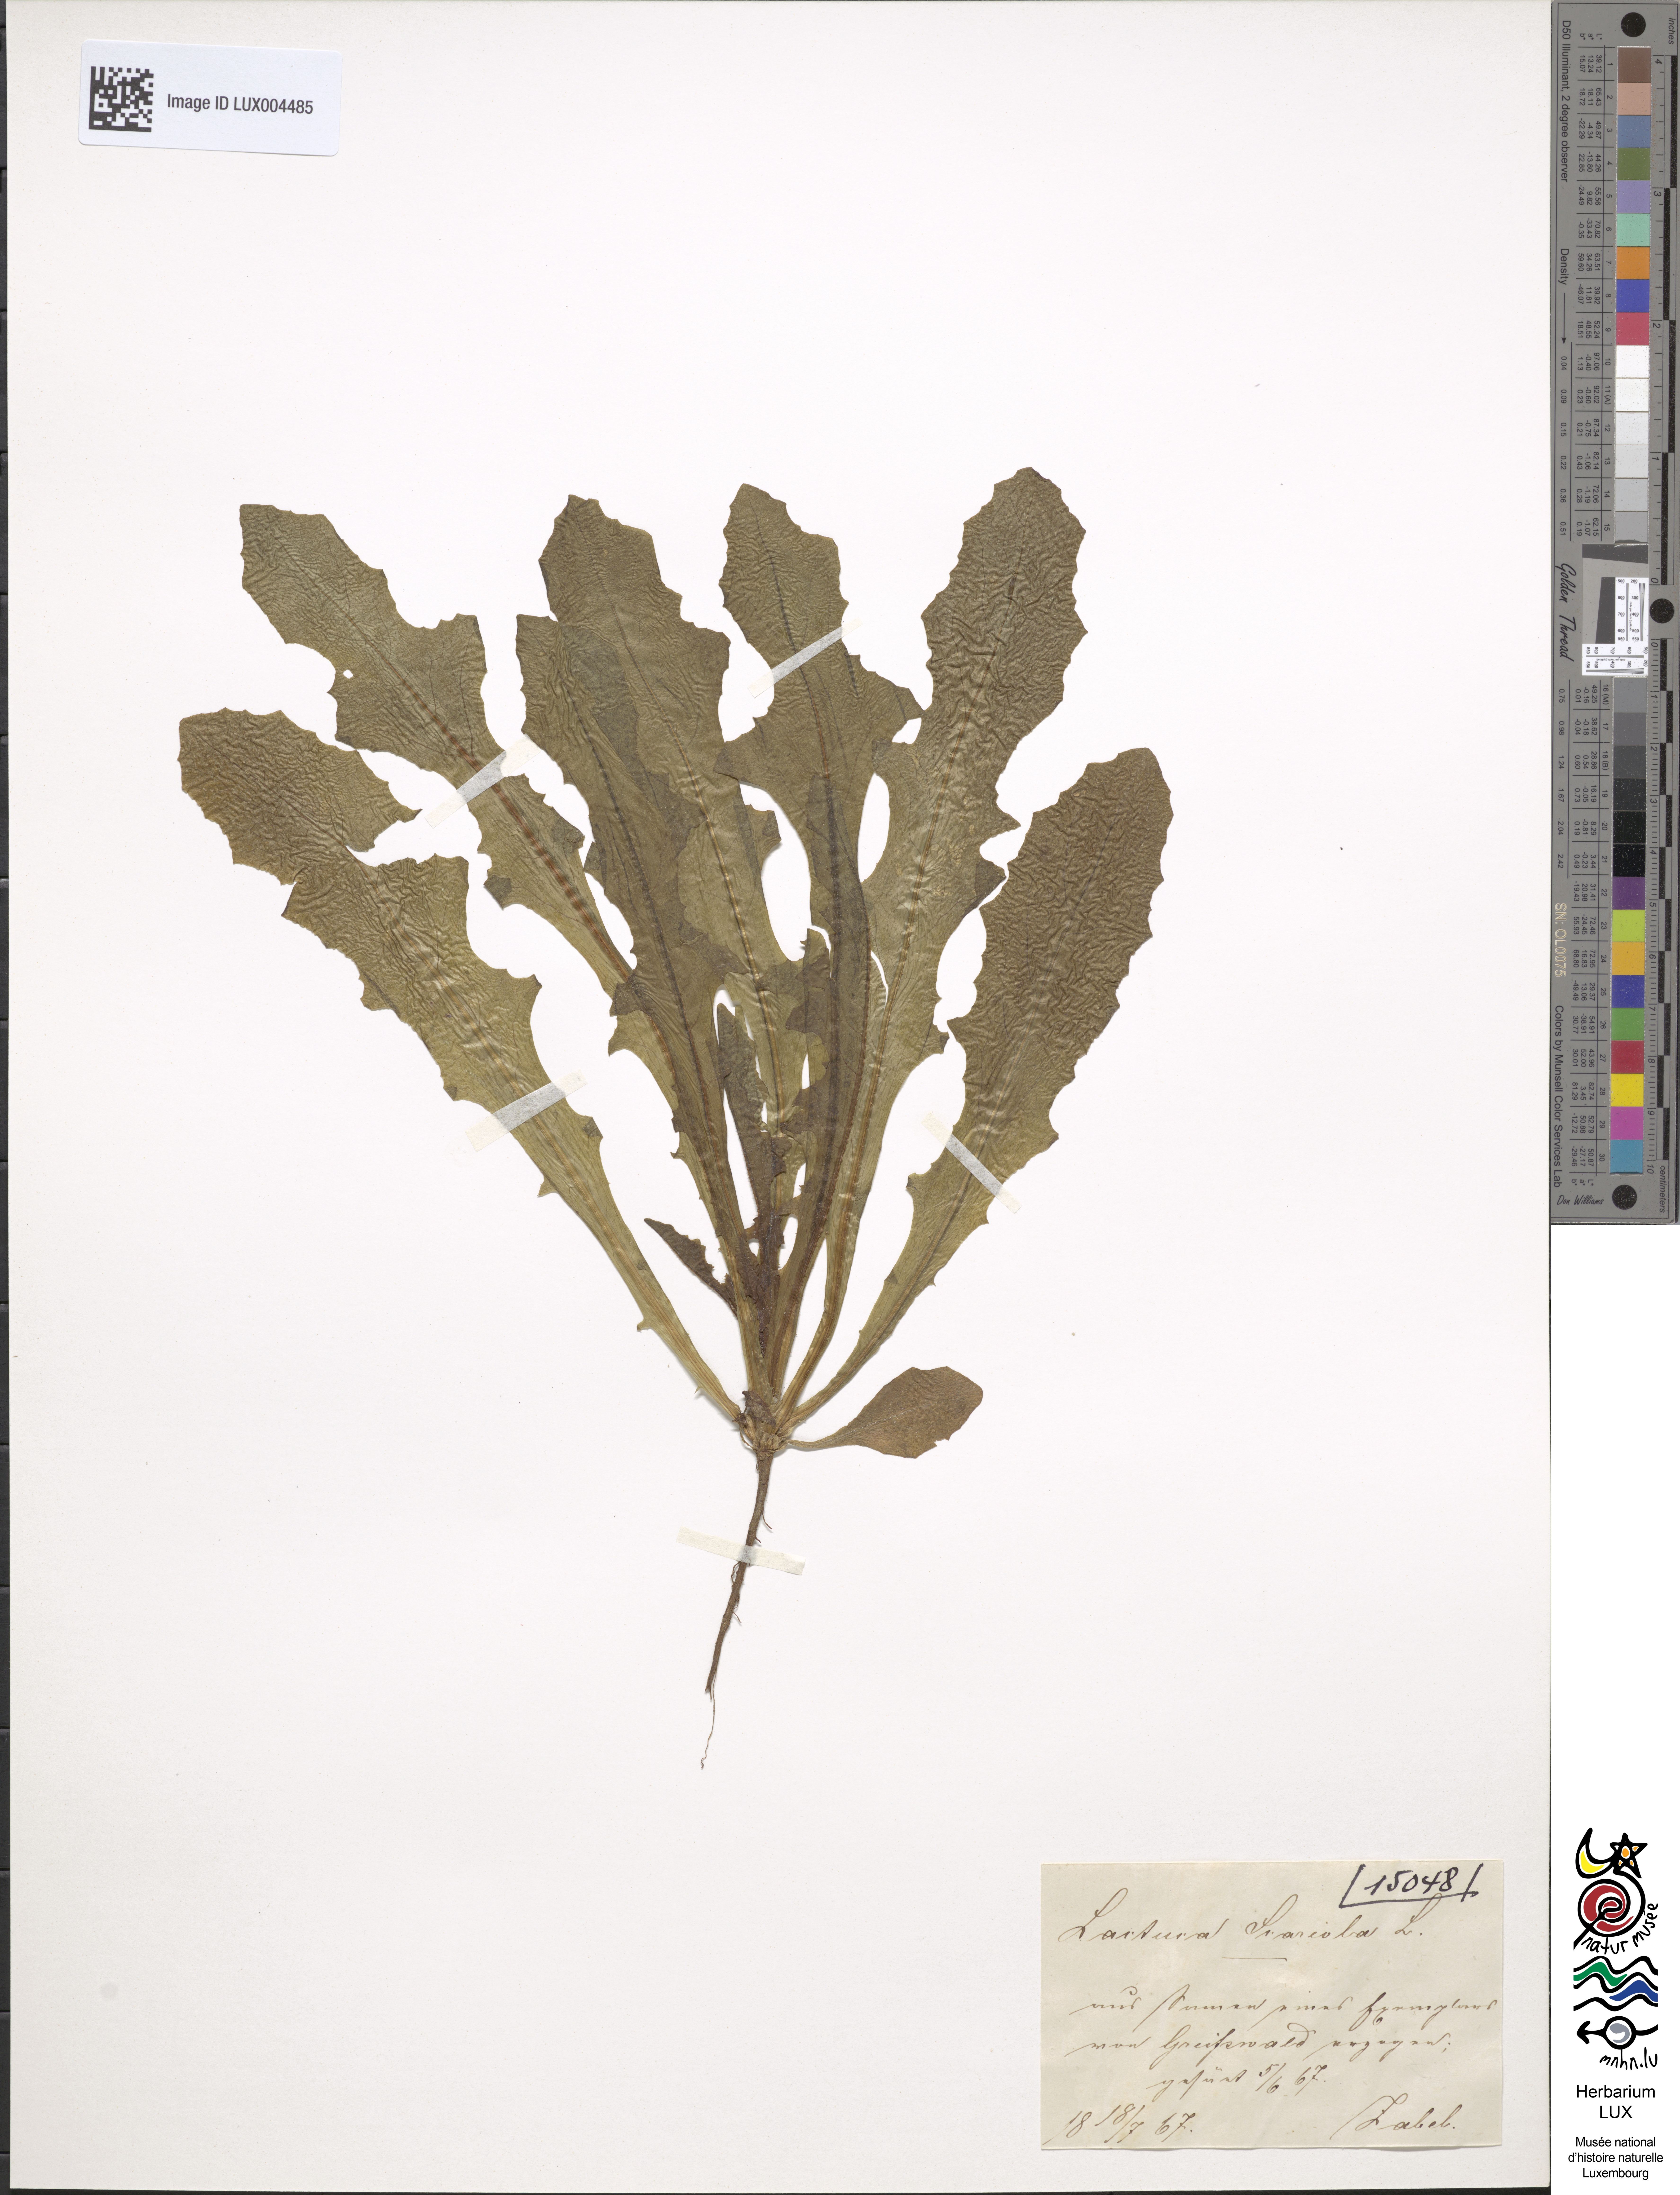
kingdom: Plantae
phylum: Tracheophyta
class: Magnoliopsida
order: Asterales
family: Asteraceae
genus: Lactuca
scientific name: Lactuca serriola
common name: Prickly lettuce
